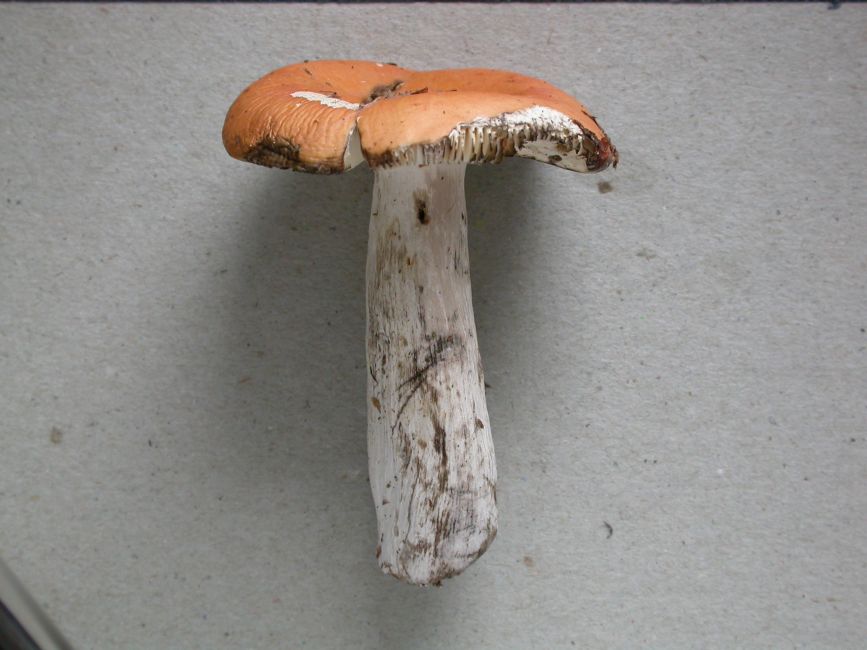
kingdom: Fungi
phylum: Basidiomycota
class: Agaricomycetes
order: Russulales
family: Russulaceae
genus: Russula
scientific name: Russula decolorans
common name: afblegende skørhat
